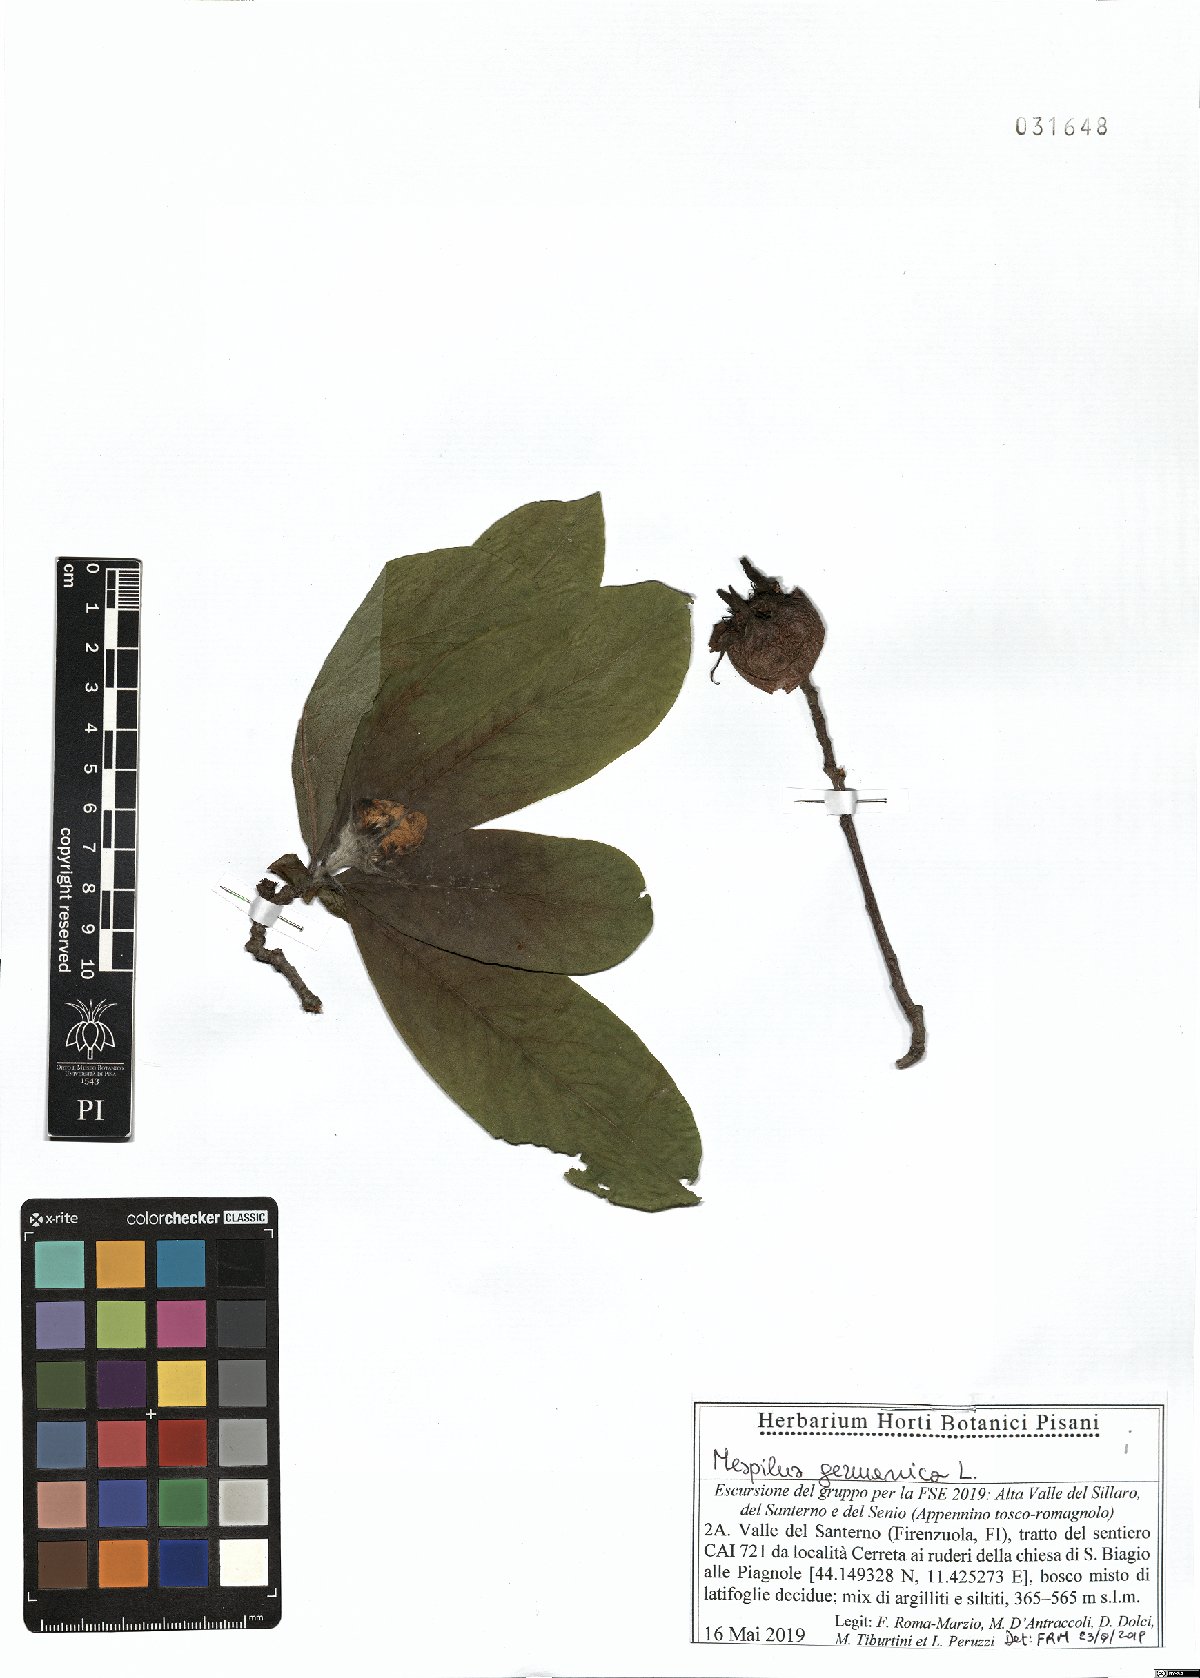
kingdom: Plantae
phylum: Tracheophyta
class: Magnoliopsida
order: Rosales
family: Rosaceae
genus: Mespilus
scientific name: Mespilus germanica
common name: Medlar
